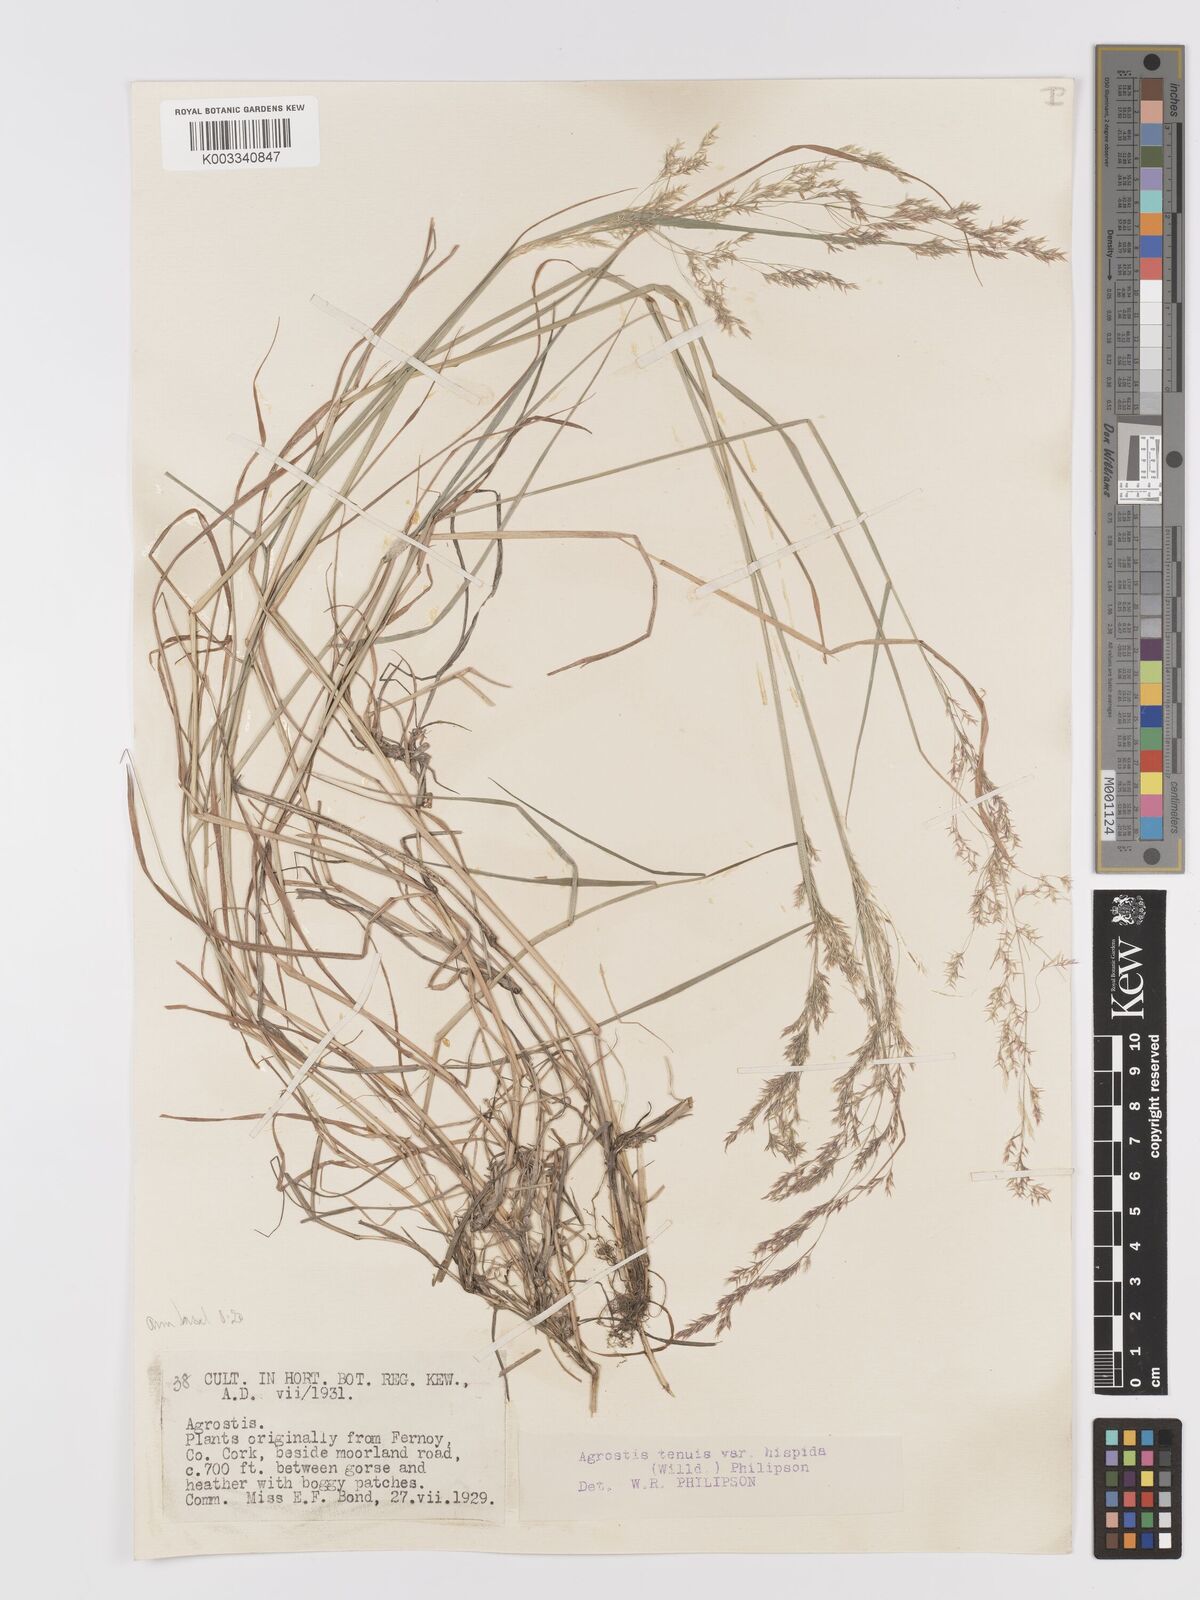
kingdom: Plantae
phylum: Tracheophyta
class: Liliopsida
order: Poales
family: Poaceae
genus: Agrostis
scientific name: Agrostis capillaris
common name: Colonial bentgrass
